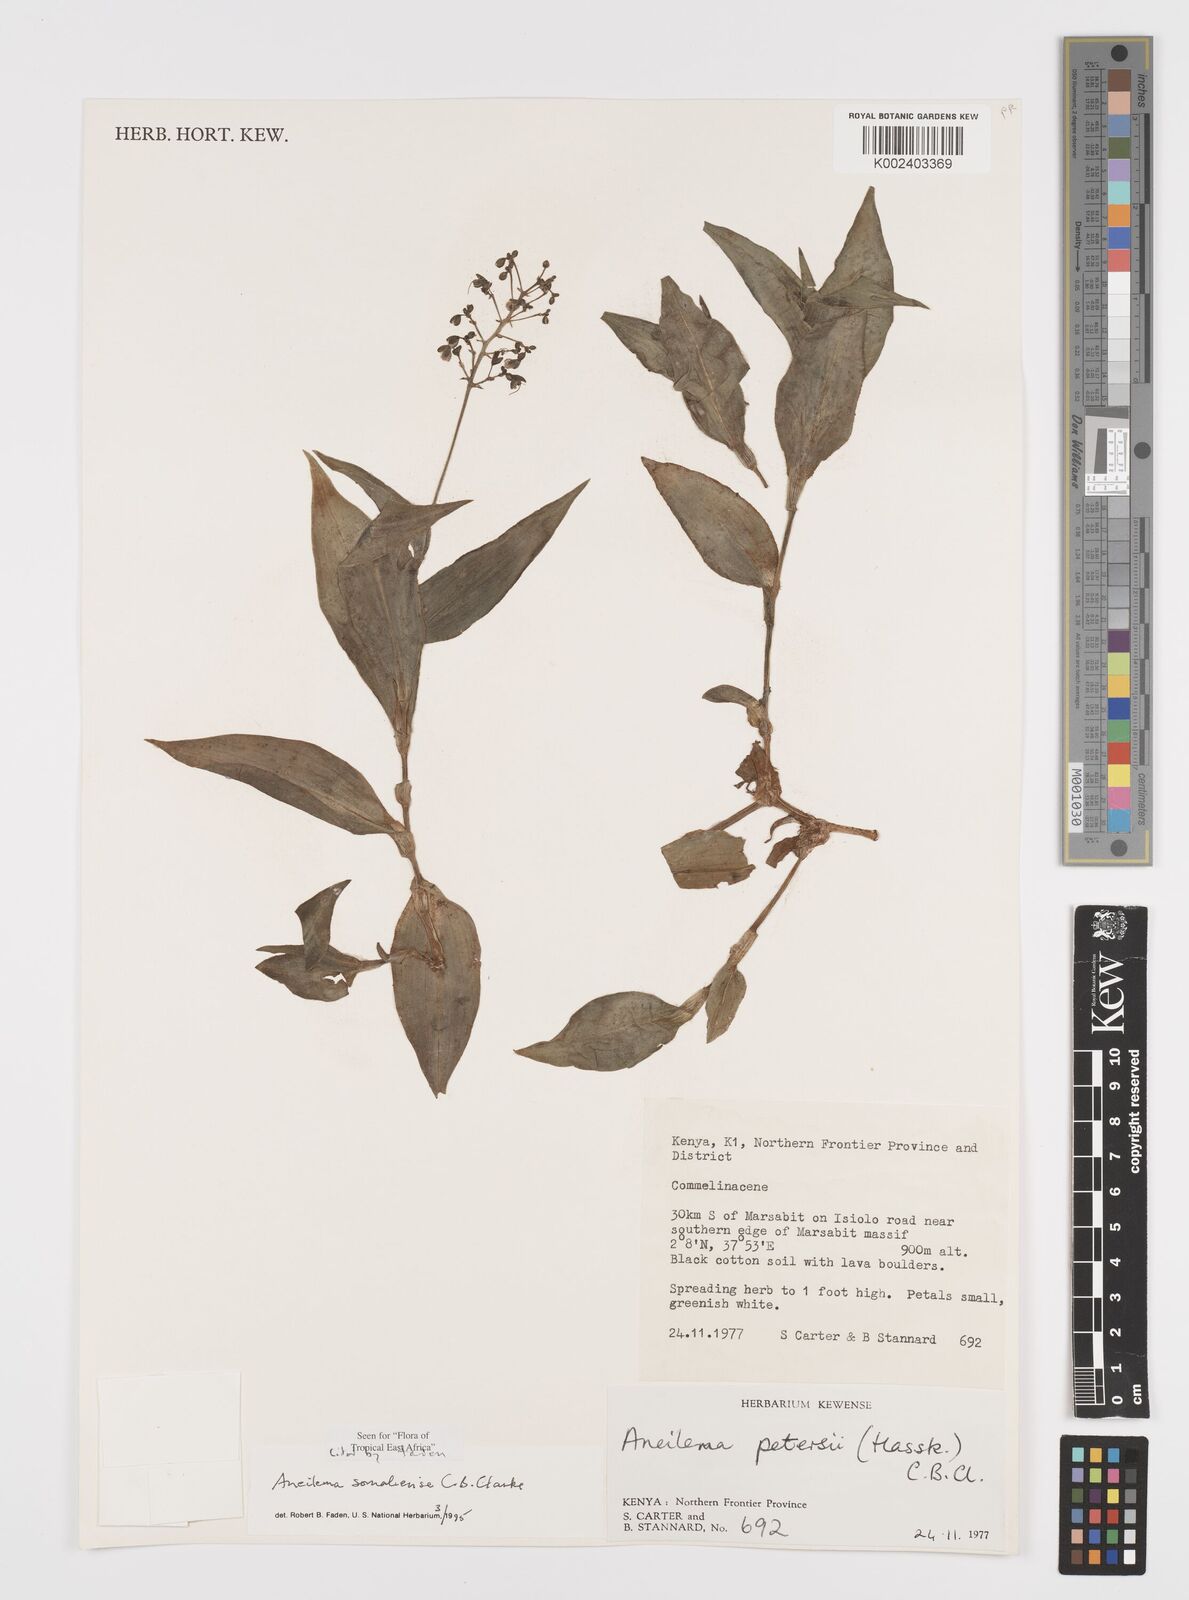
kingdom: Plantae
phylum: Tracheophyta
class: Liliopsida
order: Commelinales
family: Commelinaceae
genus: Aneilema
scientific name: Aneilema somaliense
